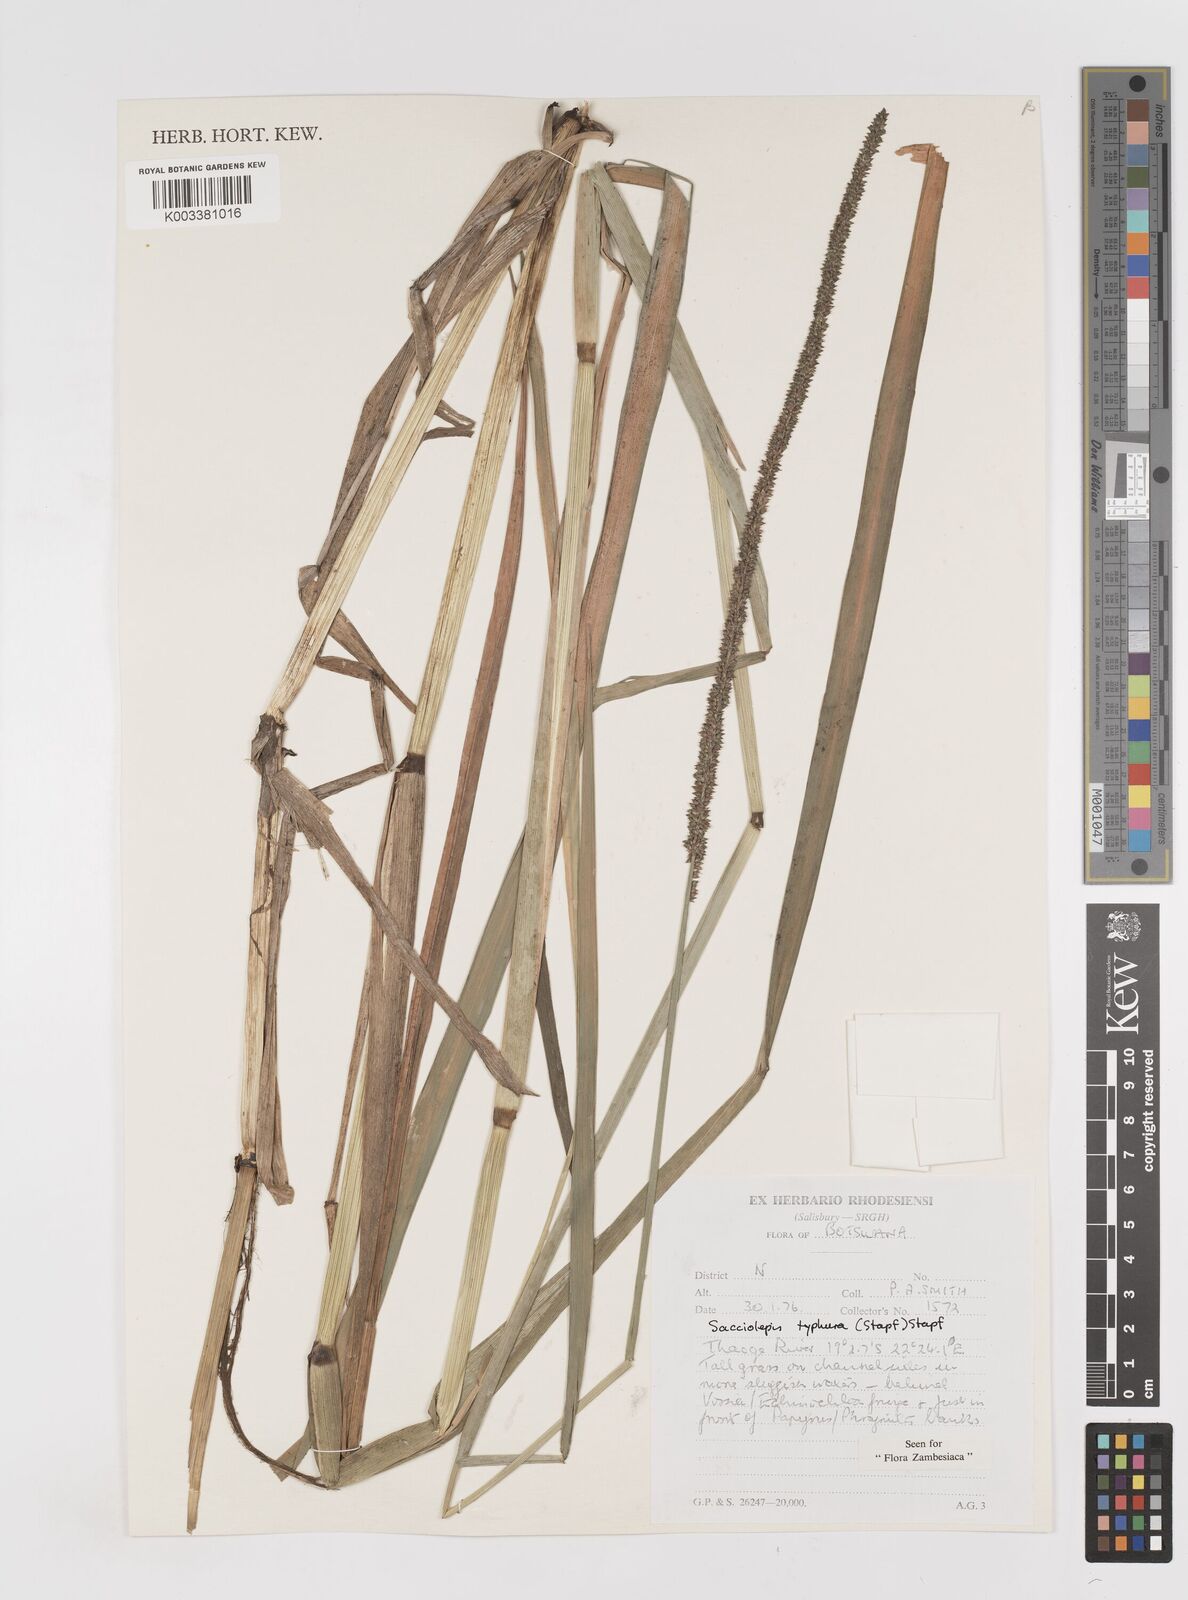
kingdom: Plantae
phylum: Tracheophyta
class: Liliopsida
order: Poales
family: Poaceae
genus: Sacciolepis
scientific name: Sacciolepis typhura
